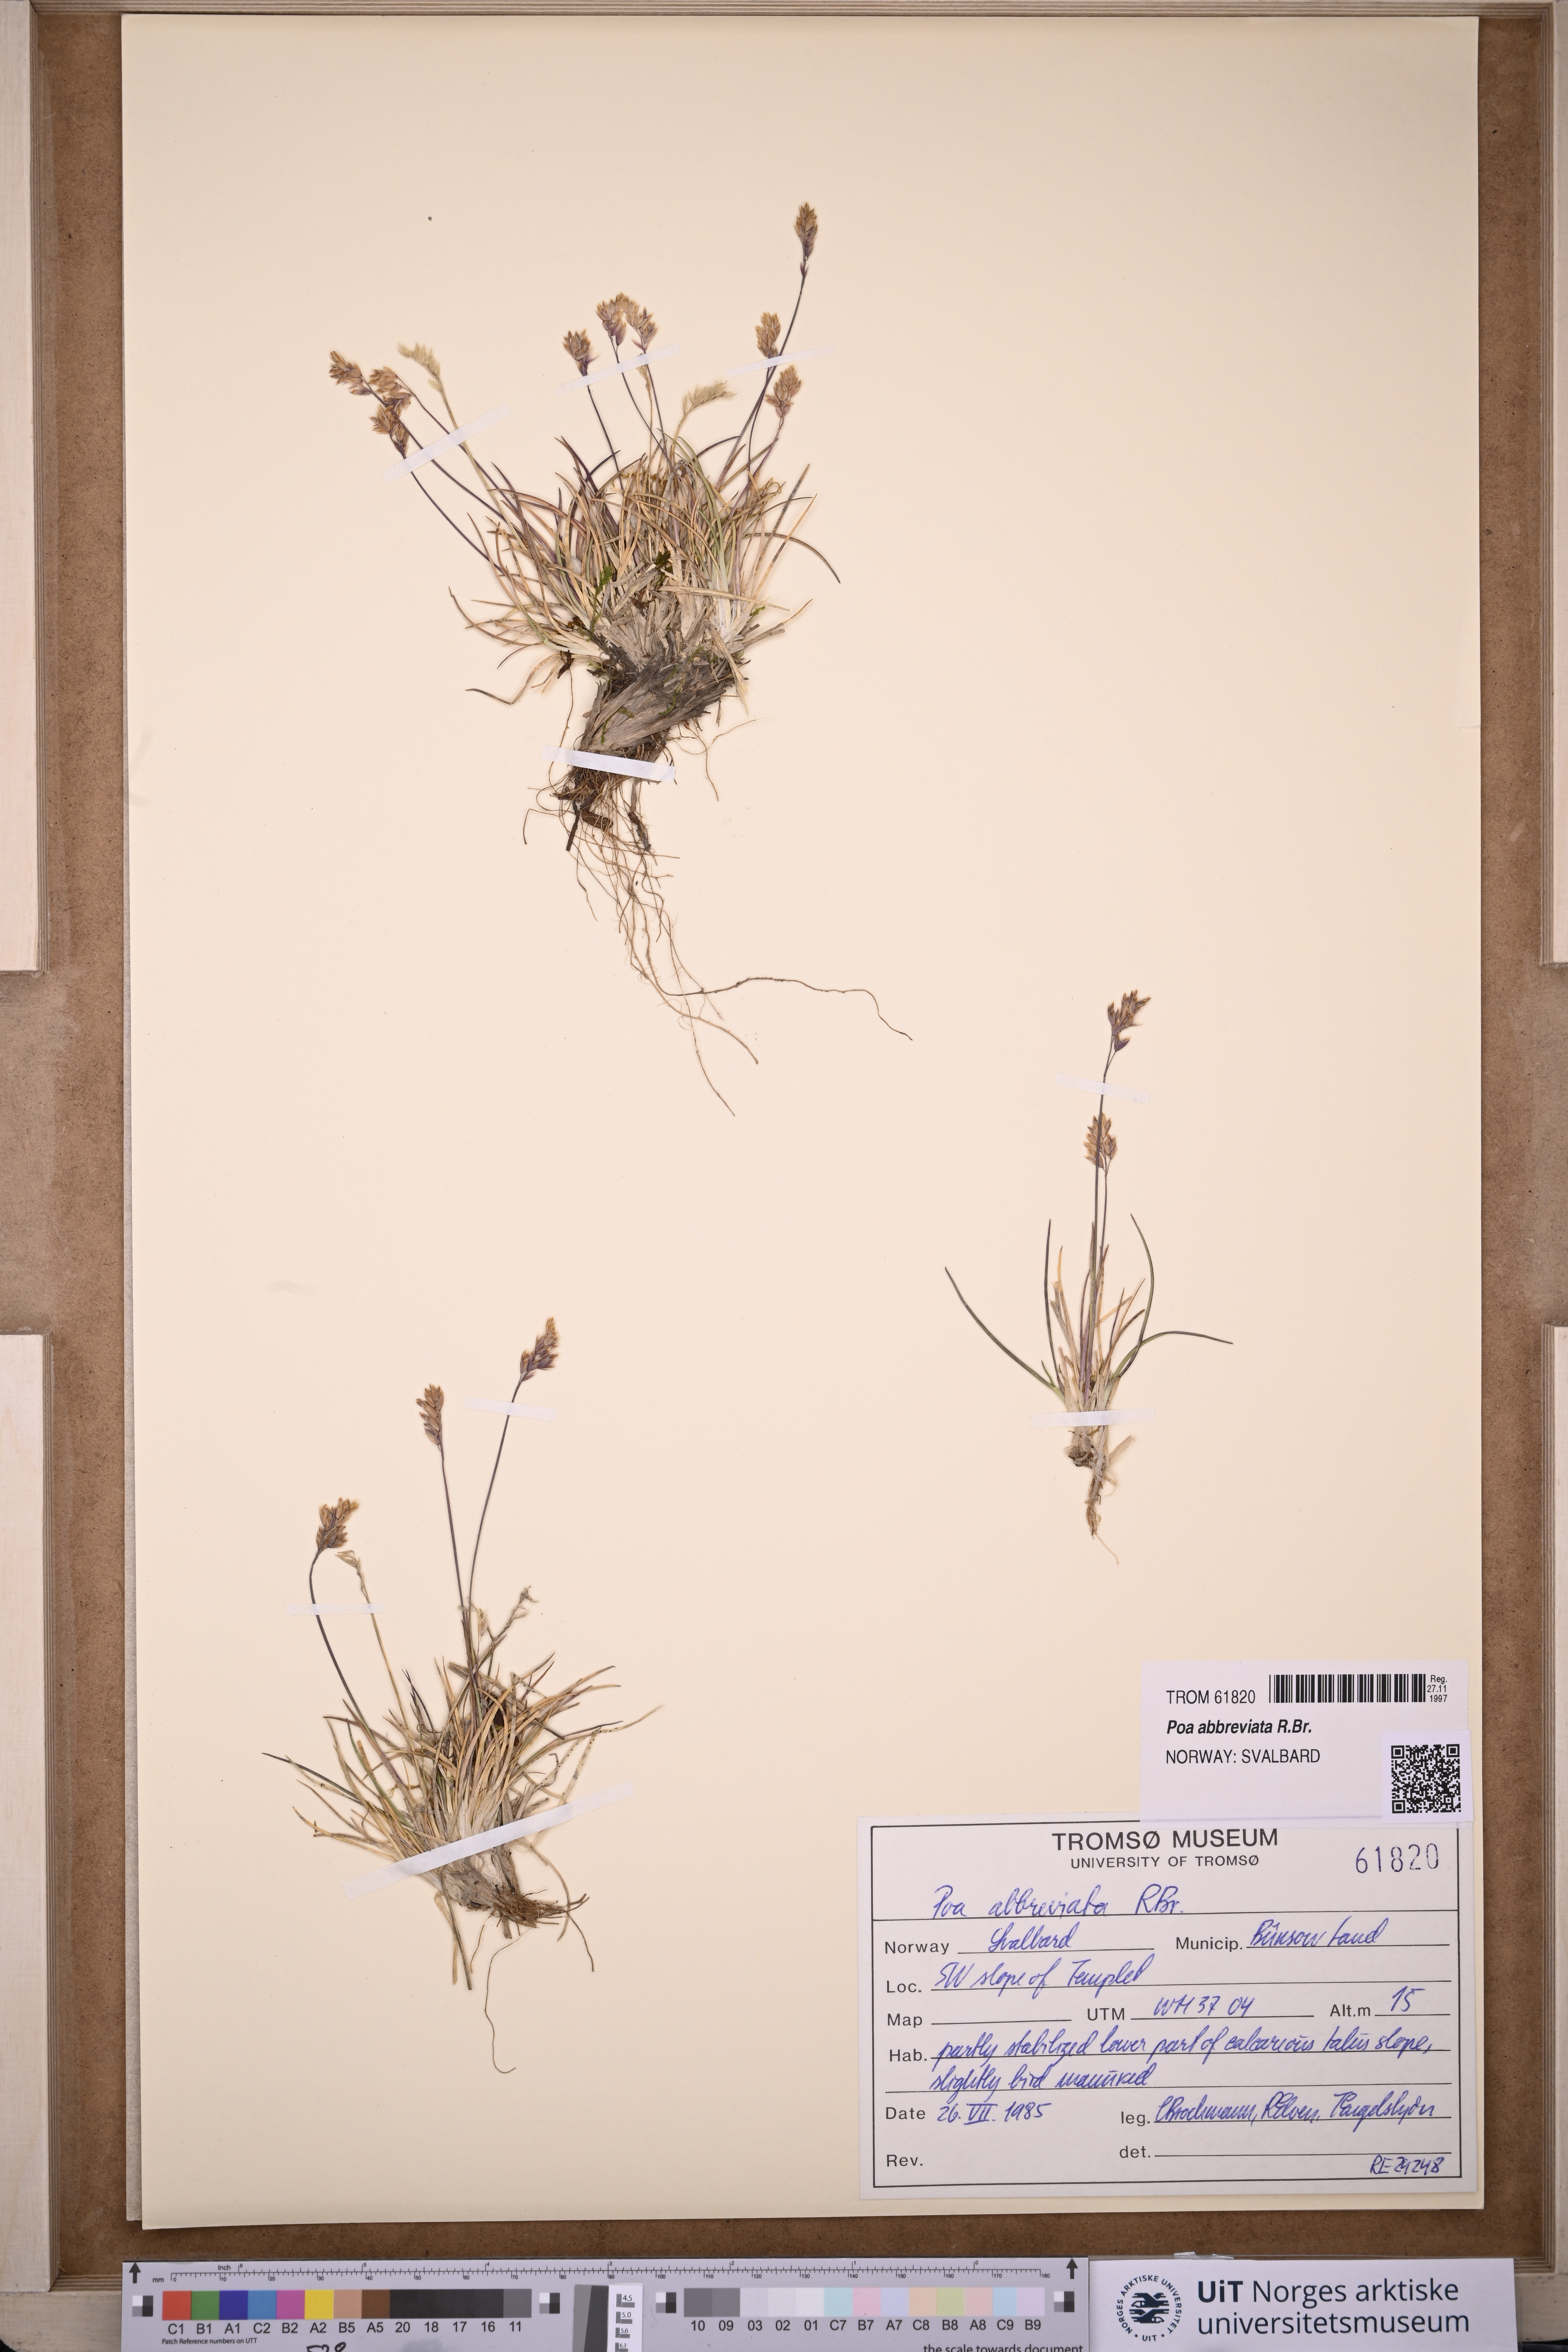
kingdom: Plantae
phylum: Tracheophyta
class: Liliopsida
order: Poales
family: Poaceae
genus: Poa
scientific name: Poa abbreviata
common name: Abbreviated bluegrass
